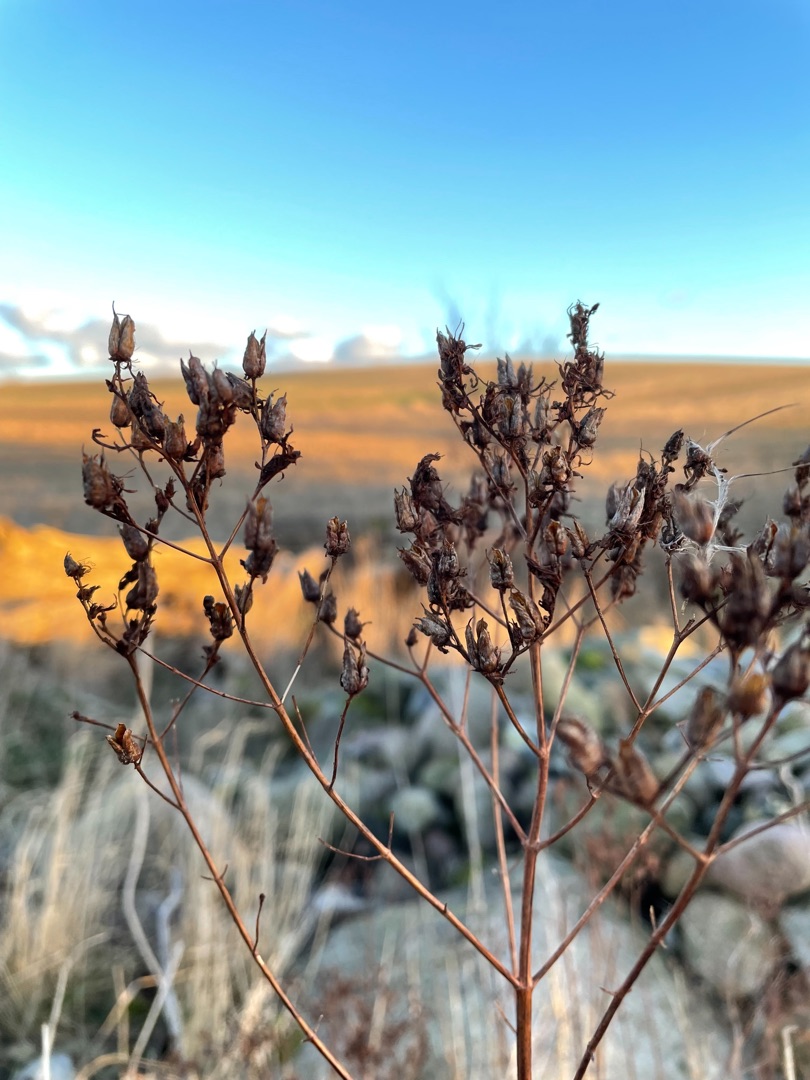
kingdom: Plantae
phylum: Tracheophyta
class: Magnoliopsida
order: Malpighiales
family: Hypericaceae
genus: Hypericum
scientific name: Hypericum perforatum
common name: Prikbladet perikon
